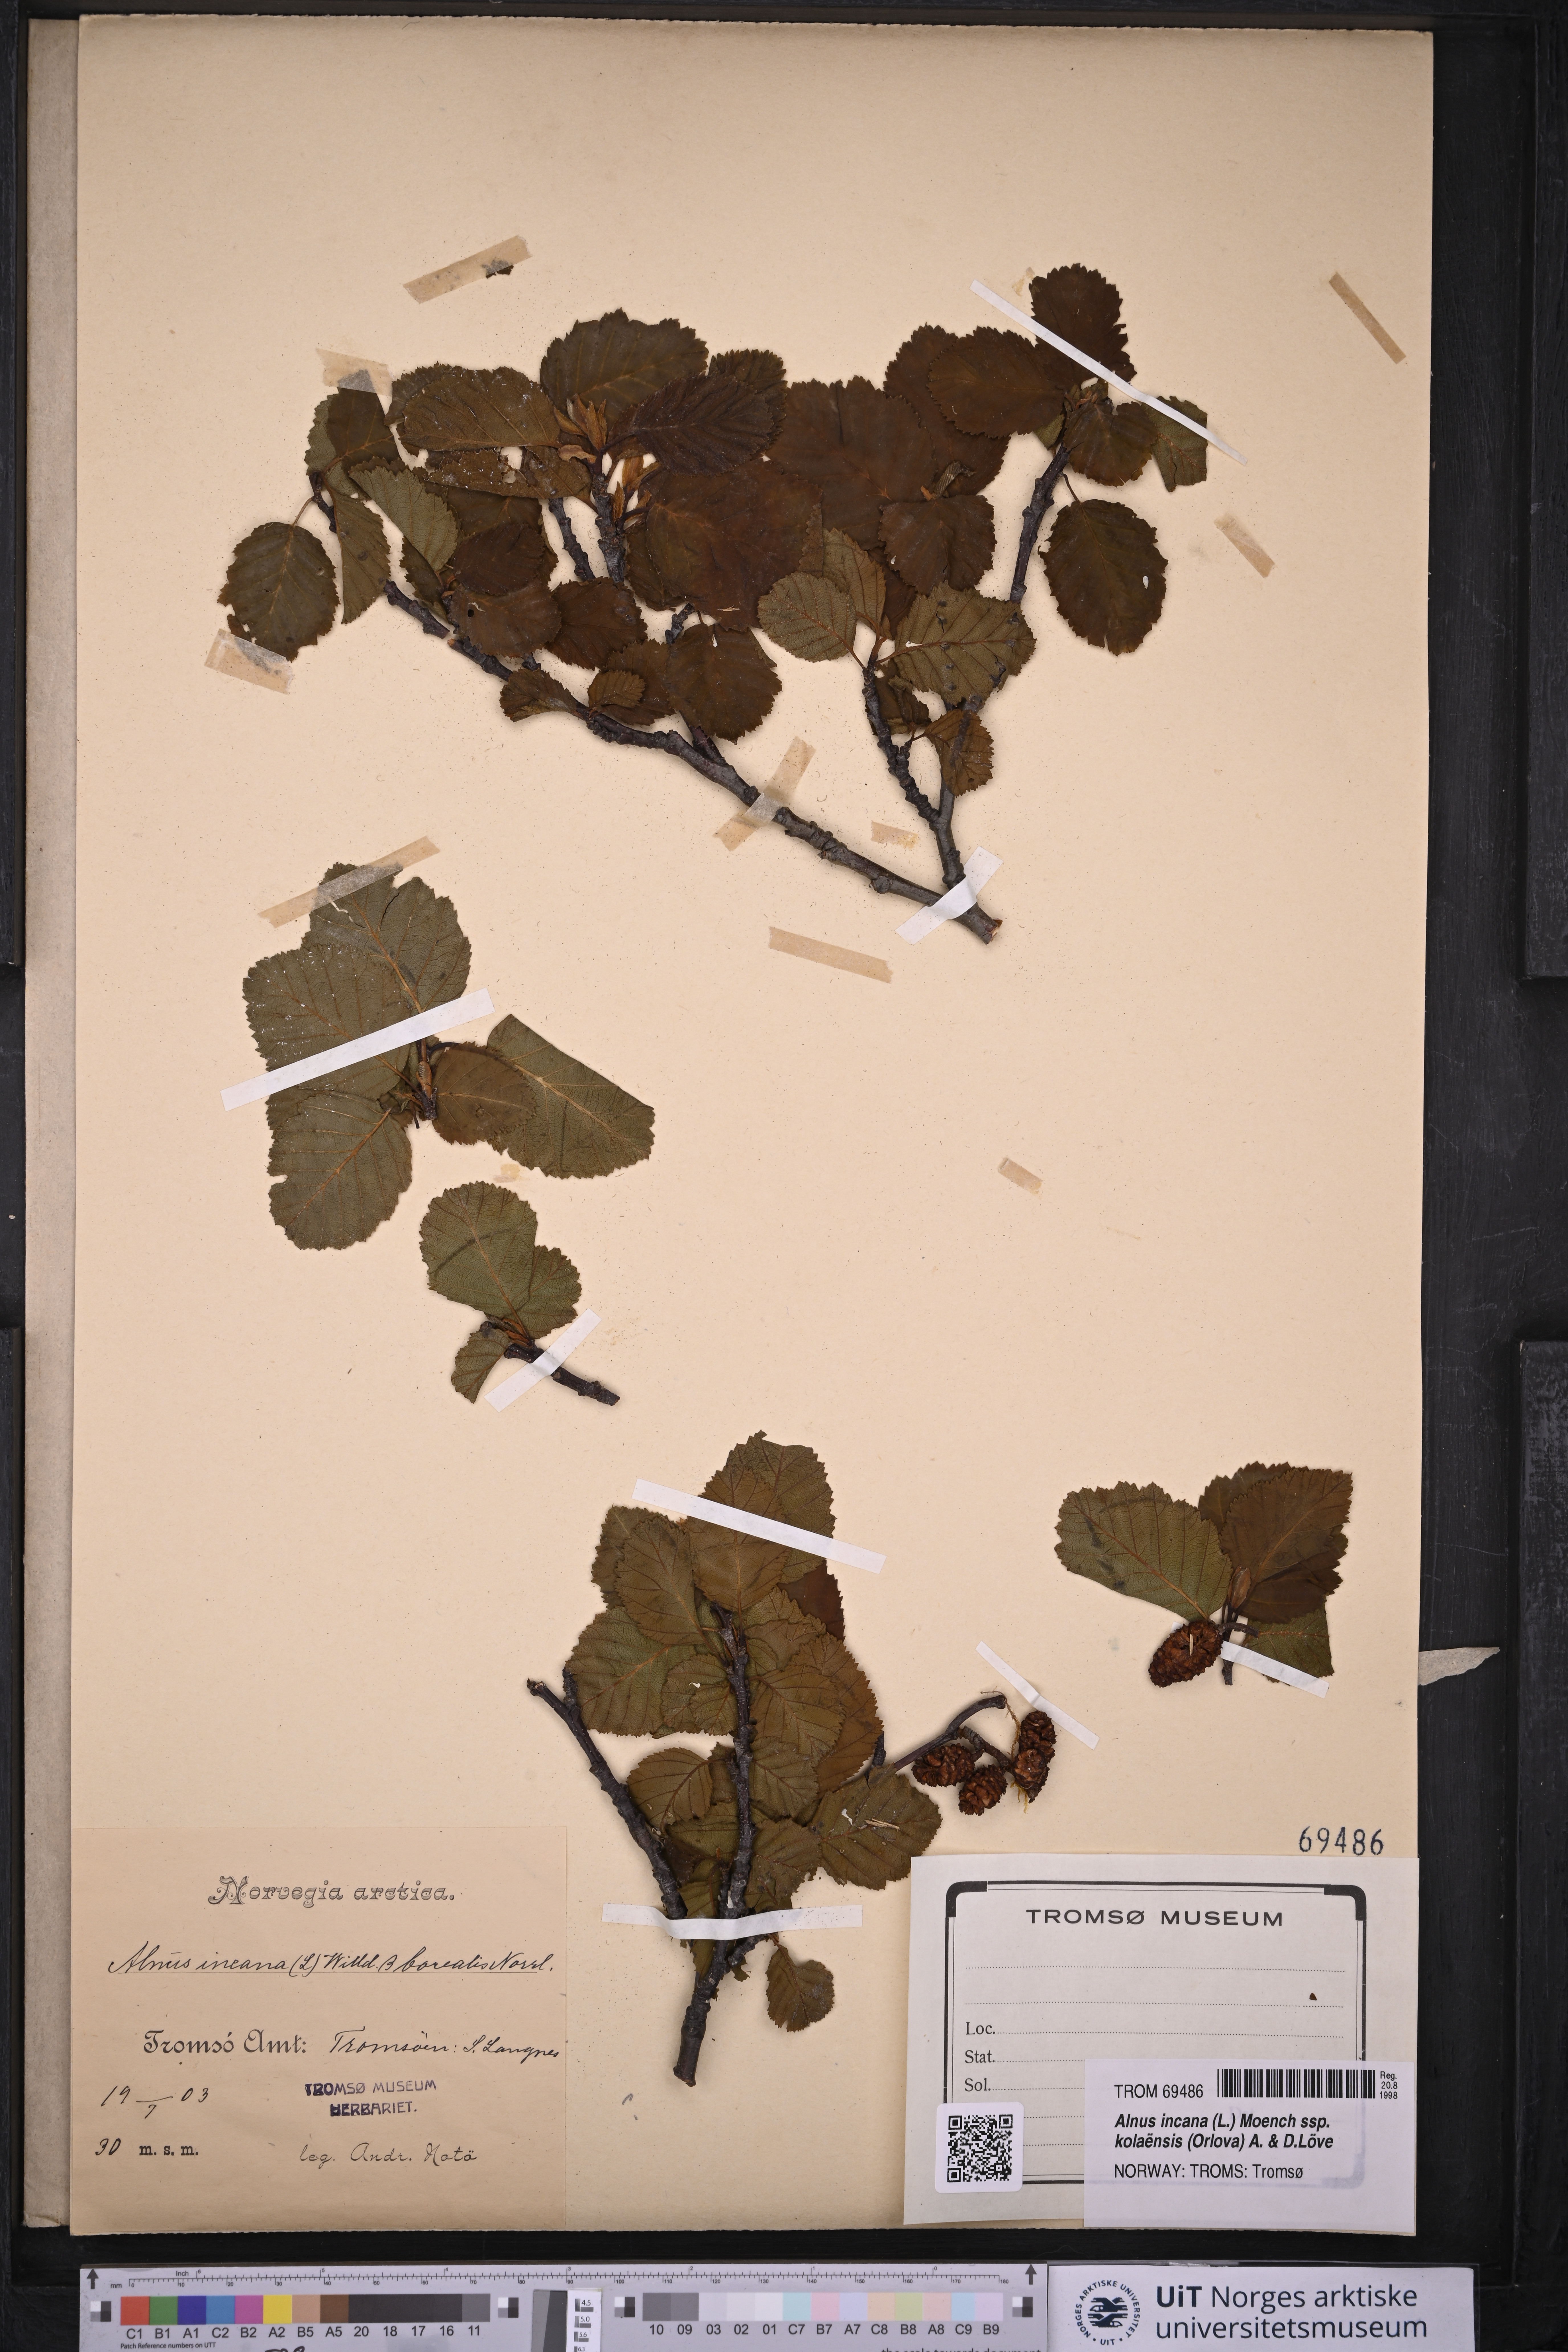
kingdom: Plantae
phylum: Tracheophyta
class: Magnoliopsida
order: Fagales
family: Betulaceae
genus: Alnus
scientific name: Alnus incana
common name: Grey alder
